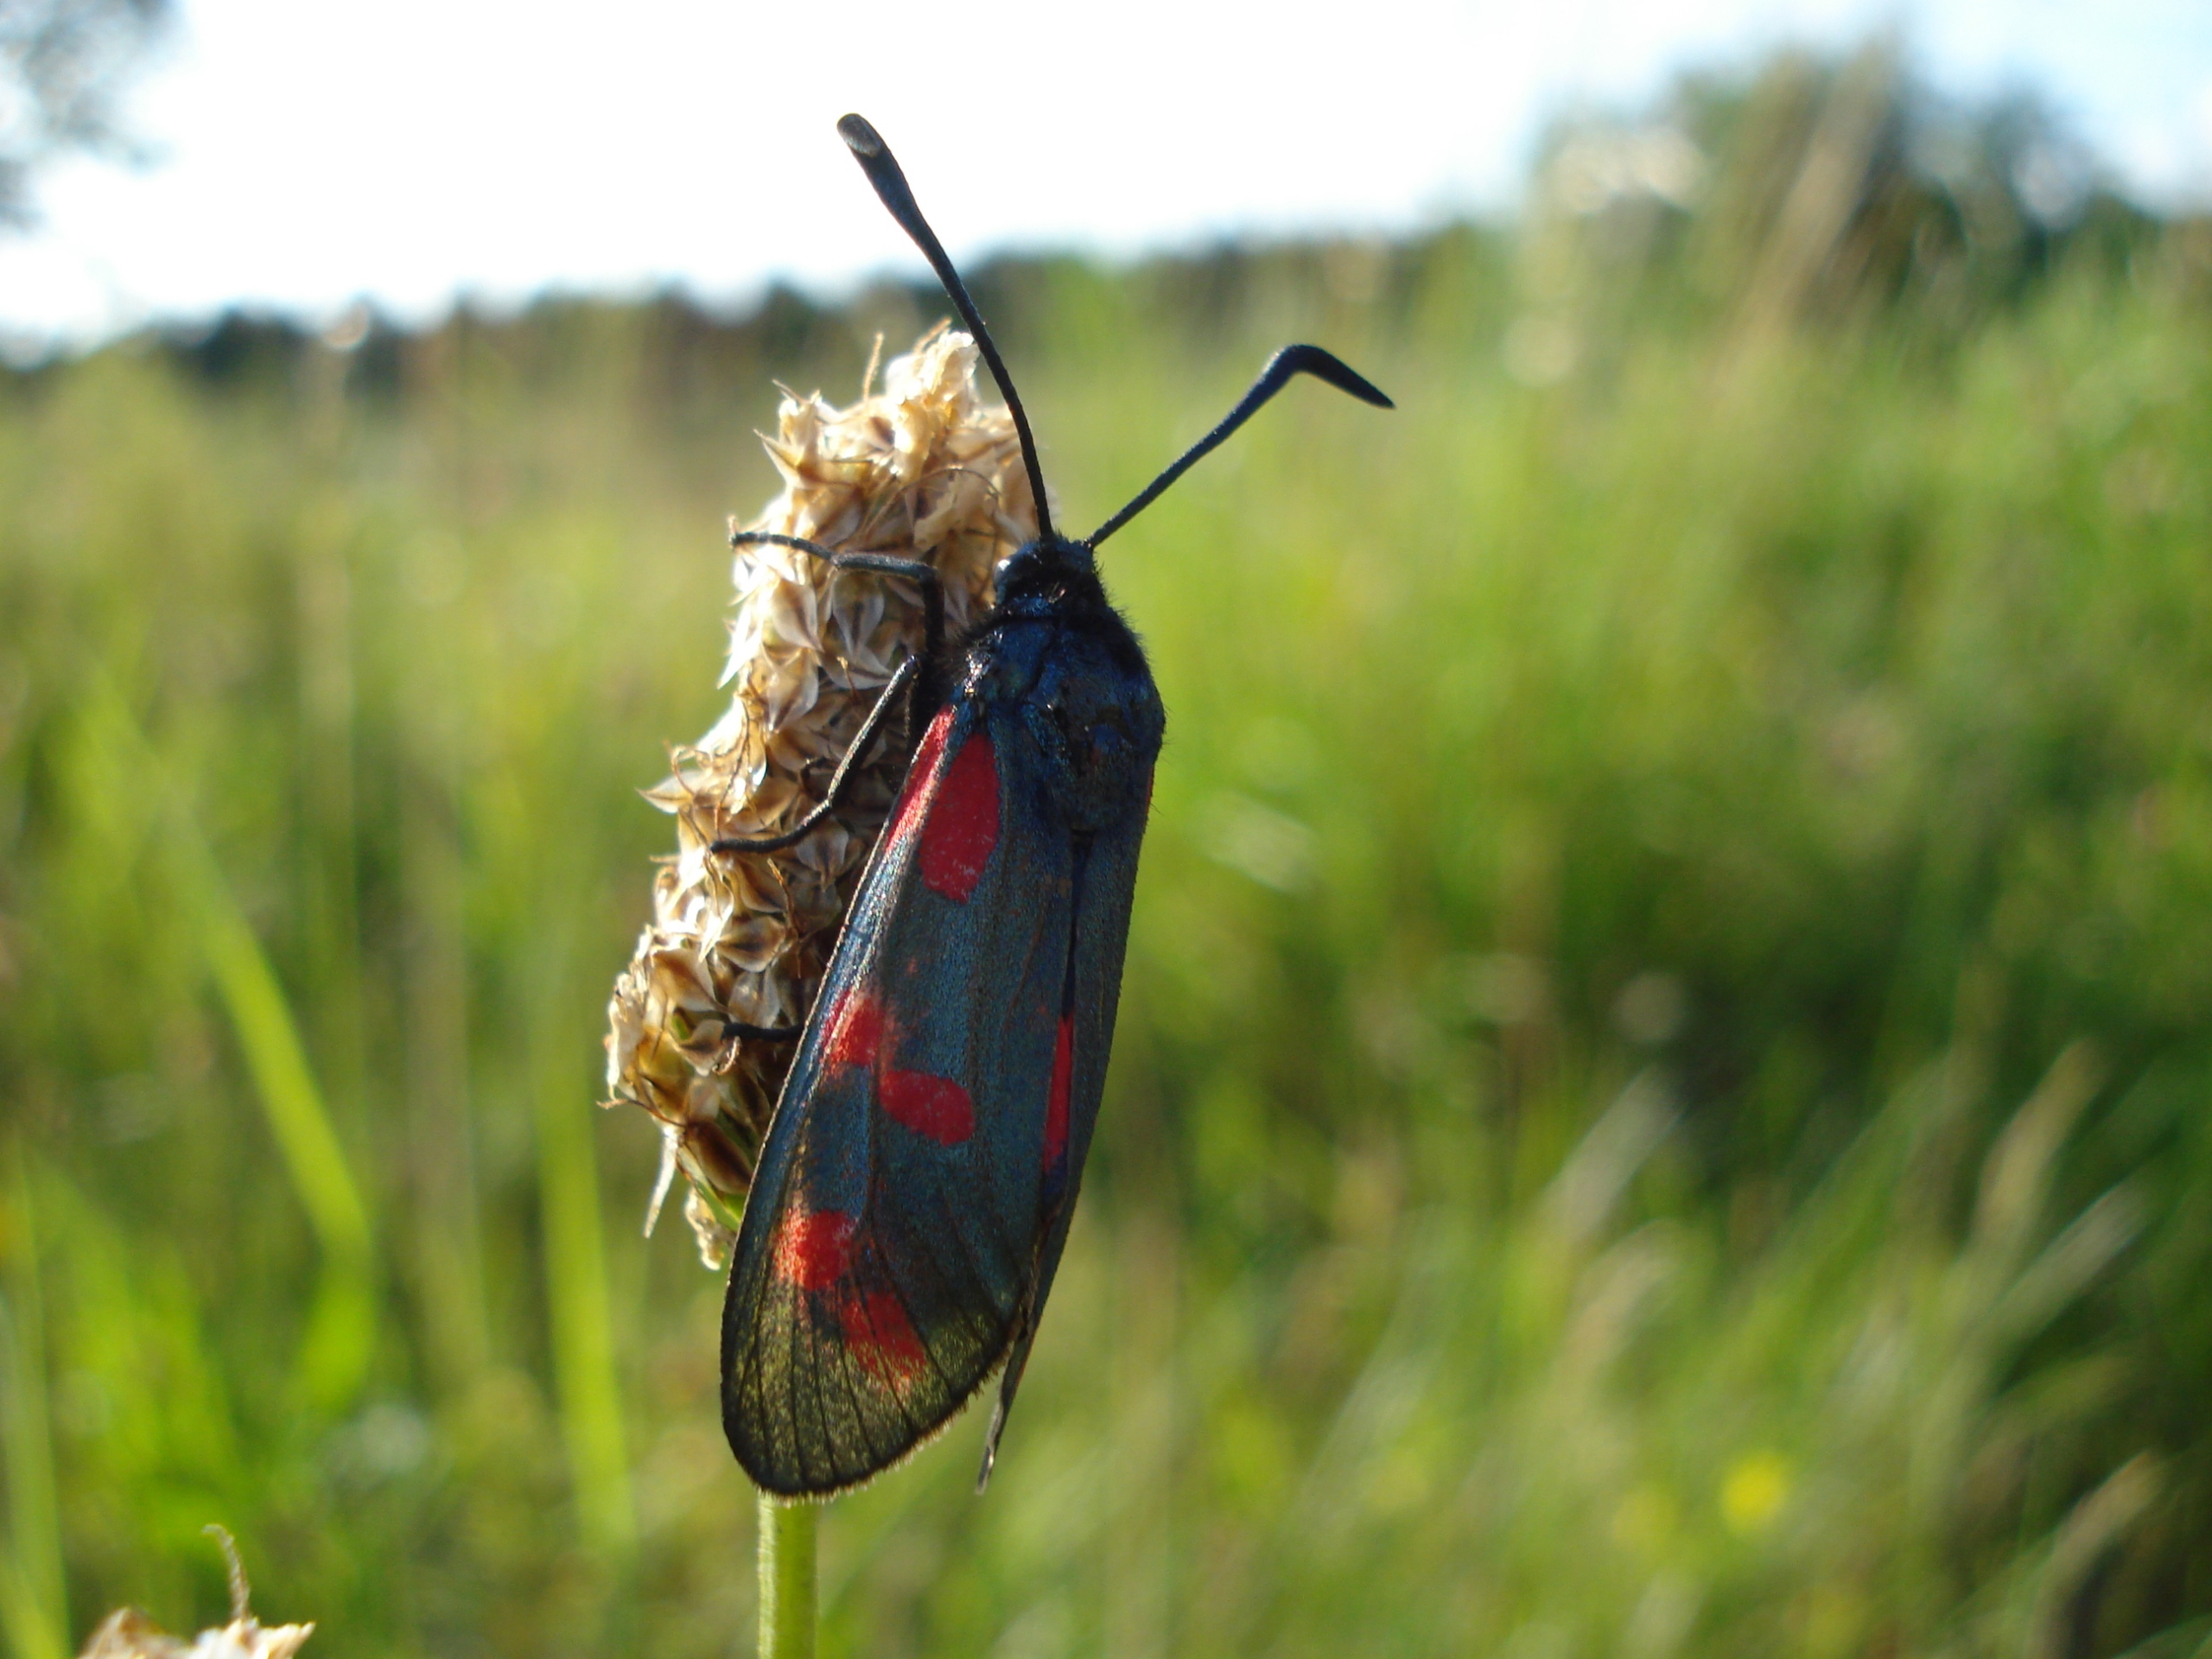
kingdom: Animalia
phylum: Arthropoda
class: Insecta
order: Lepidoptera
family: Zygaenidae
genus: Zygaena
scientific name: Zygaena filipendulae
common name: Seksplettet køllesværmer
